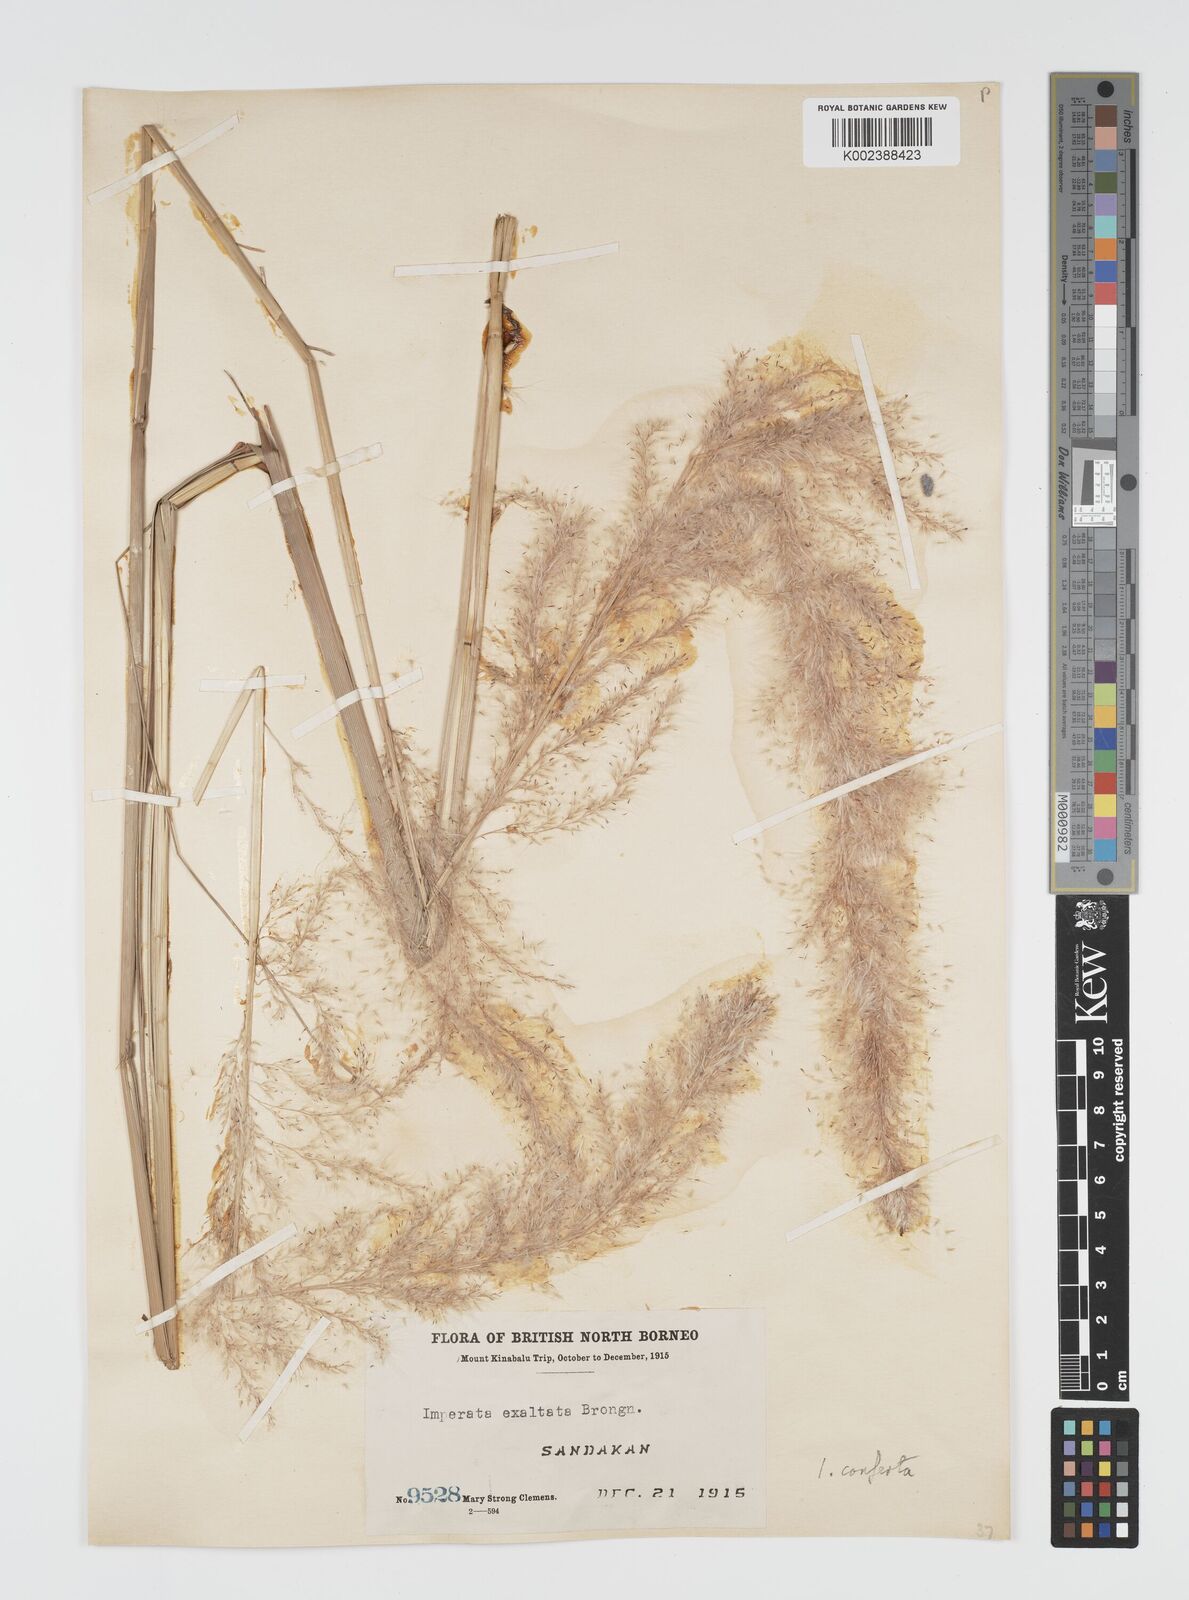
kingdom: Plantae
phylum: Tracheophyta
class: Liliopsida
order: Poales
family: Poaceae
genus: Imperata
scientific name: Imperata conferta
